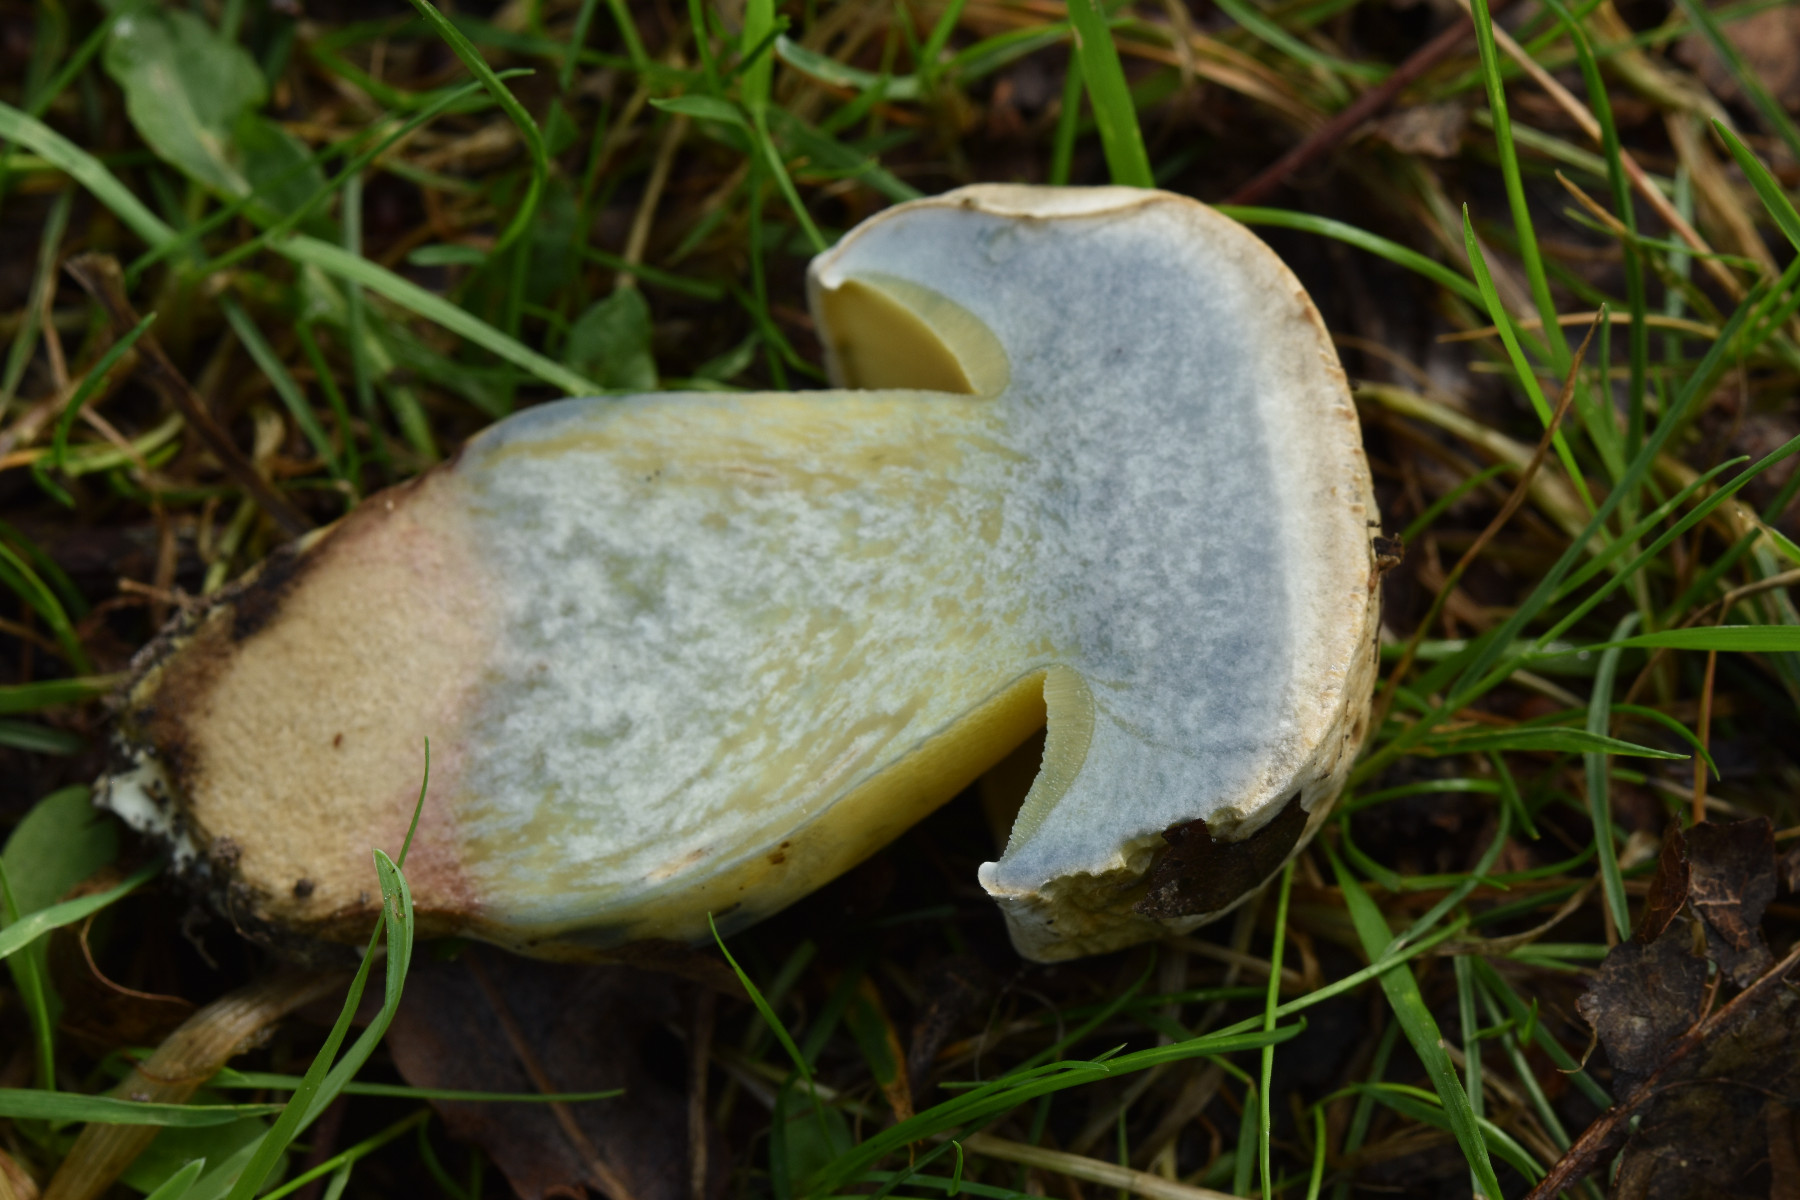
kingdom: Fungi
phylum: Basidiomycota
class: Agaricomycetes
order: Boletales
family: Boletaceae
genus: Caloboletus
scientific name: Caloboletus radicans
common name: rod-rørhat
